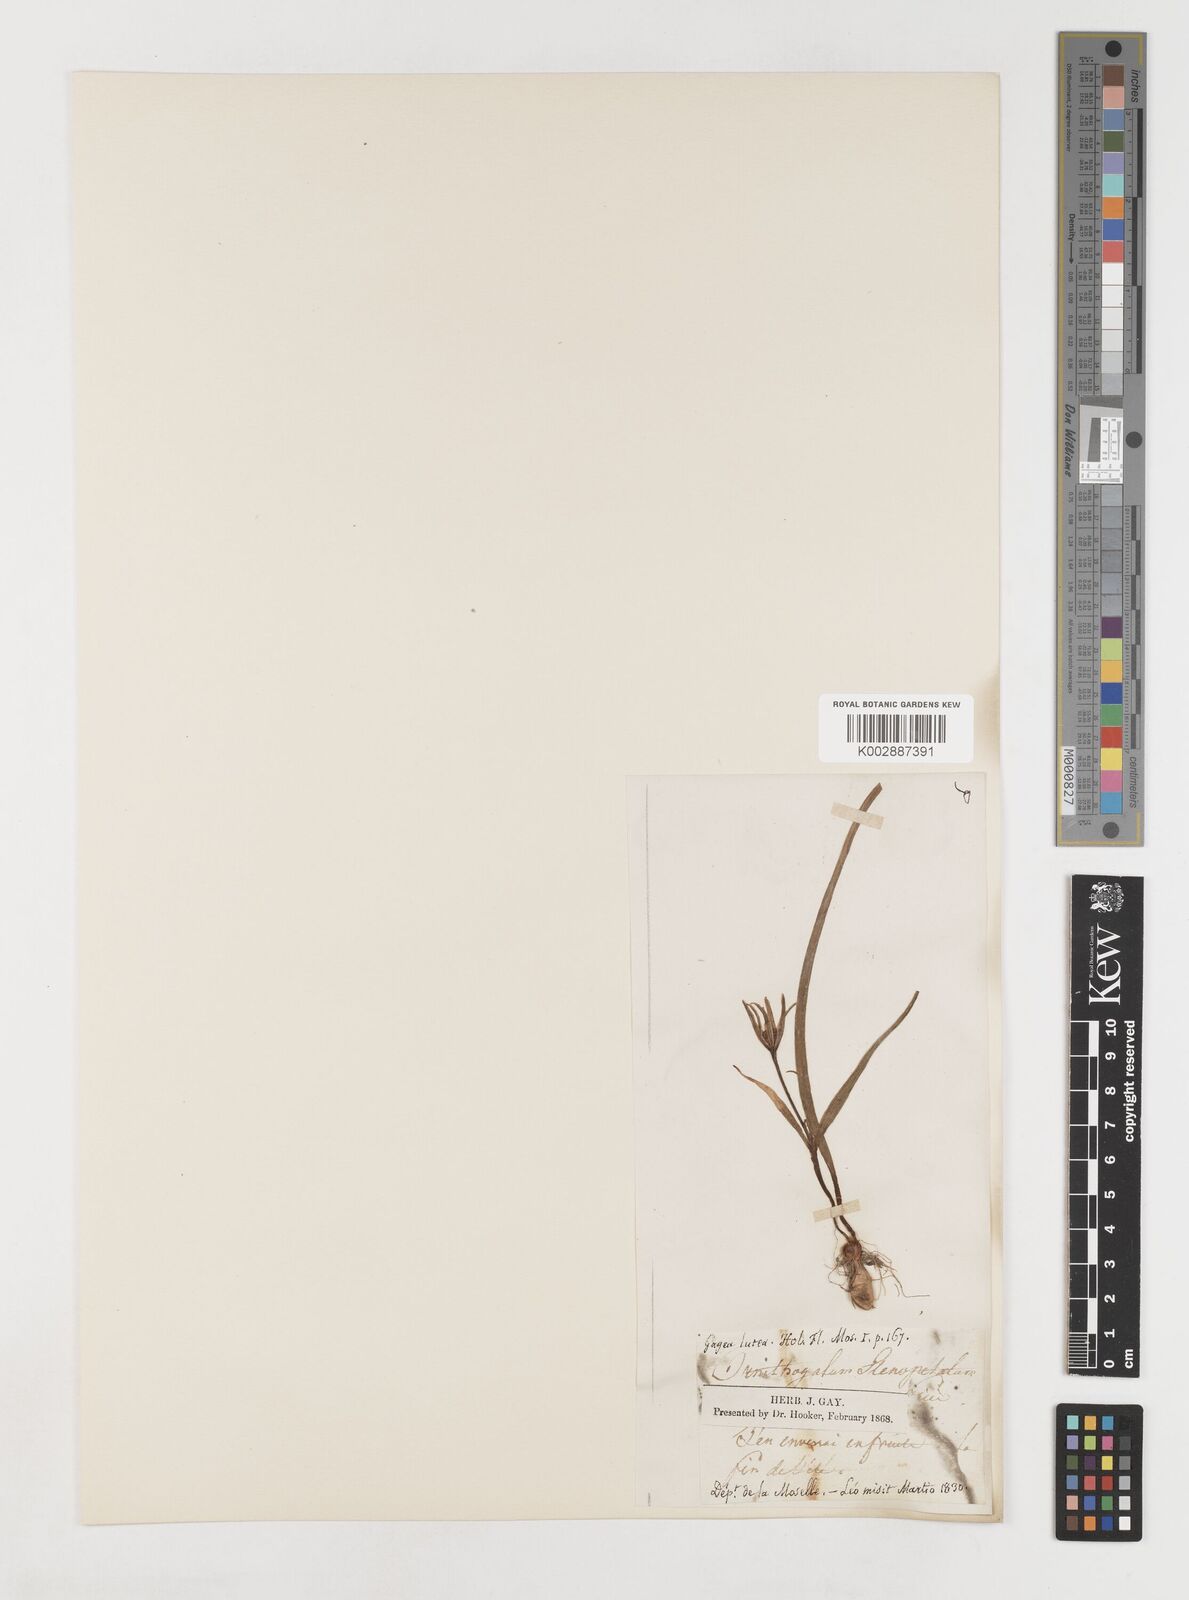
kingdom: Plantae
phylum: Tracheophyta
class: Liliopsida
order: Liliales
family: Liliaceae
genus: Gagea
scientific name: Gagea pratensis
